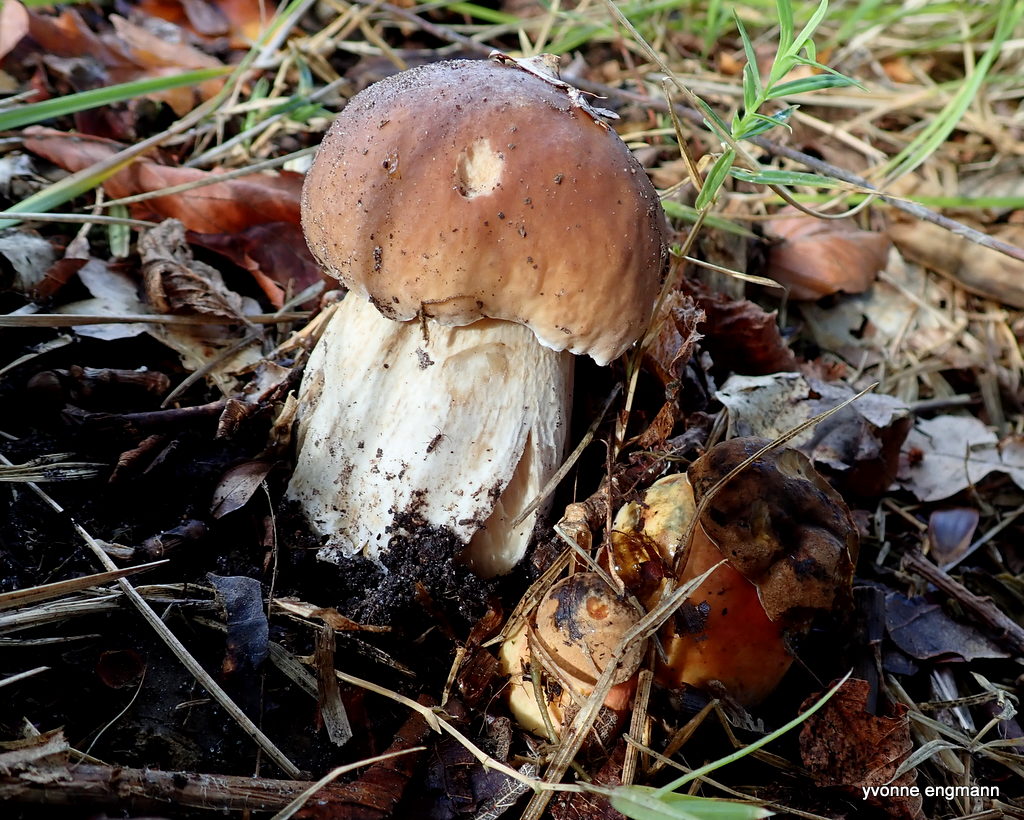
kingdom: Fungi
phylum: Basidiomycota
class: Agaricomycetes
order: Boletales
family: Boletaceae
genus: Boletus
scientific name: Boletus edulis
